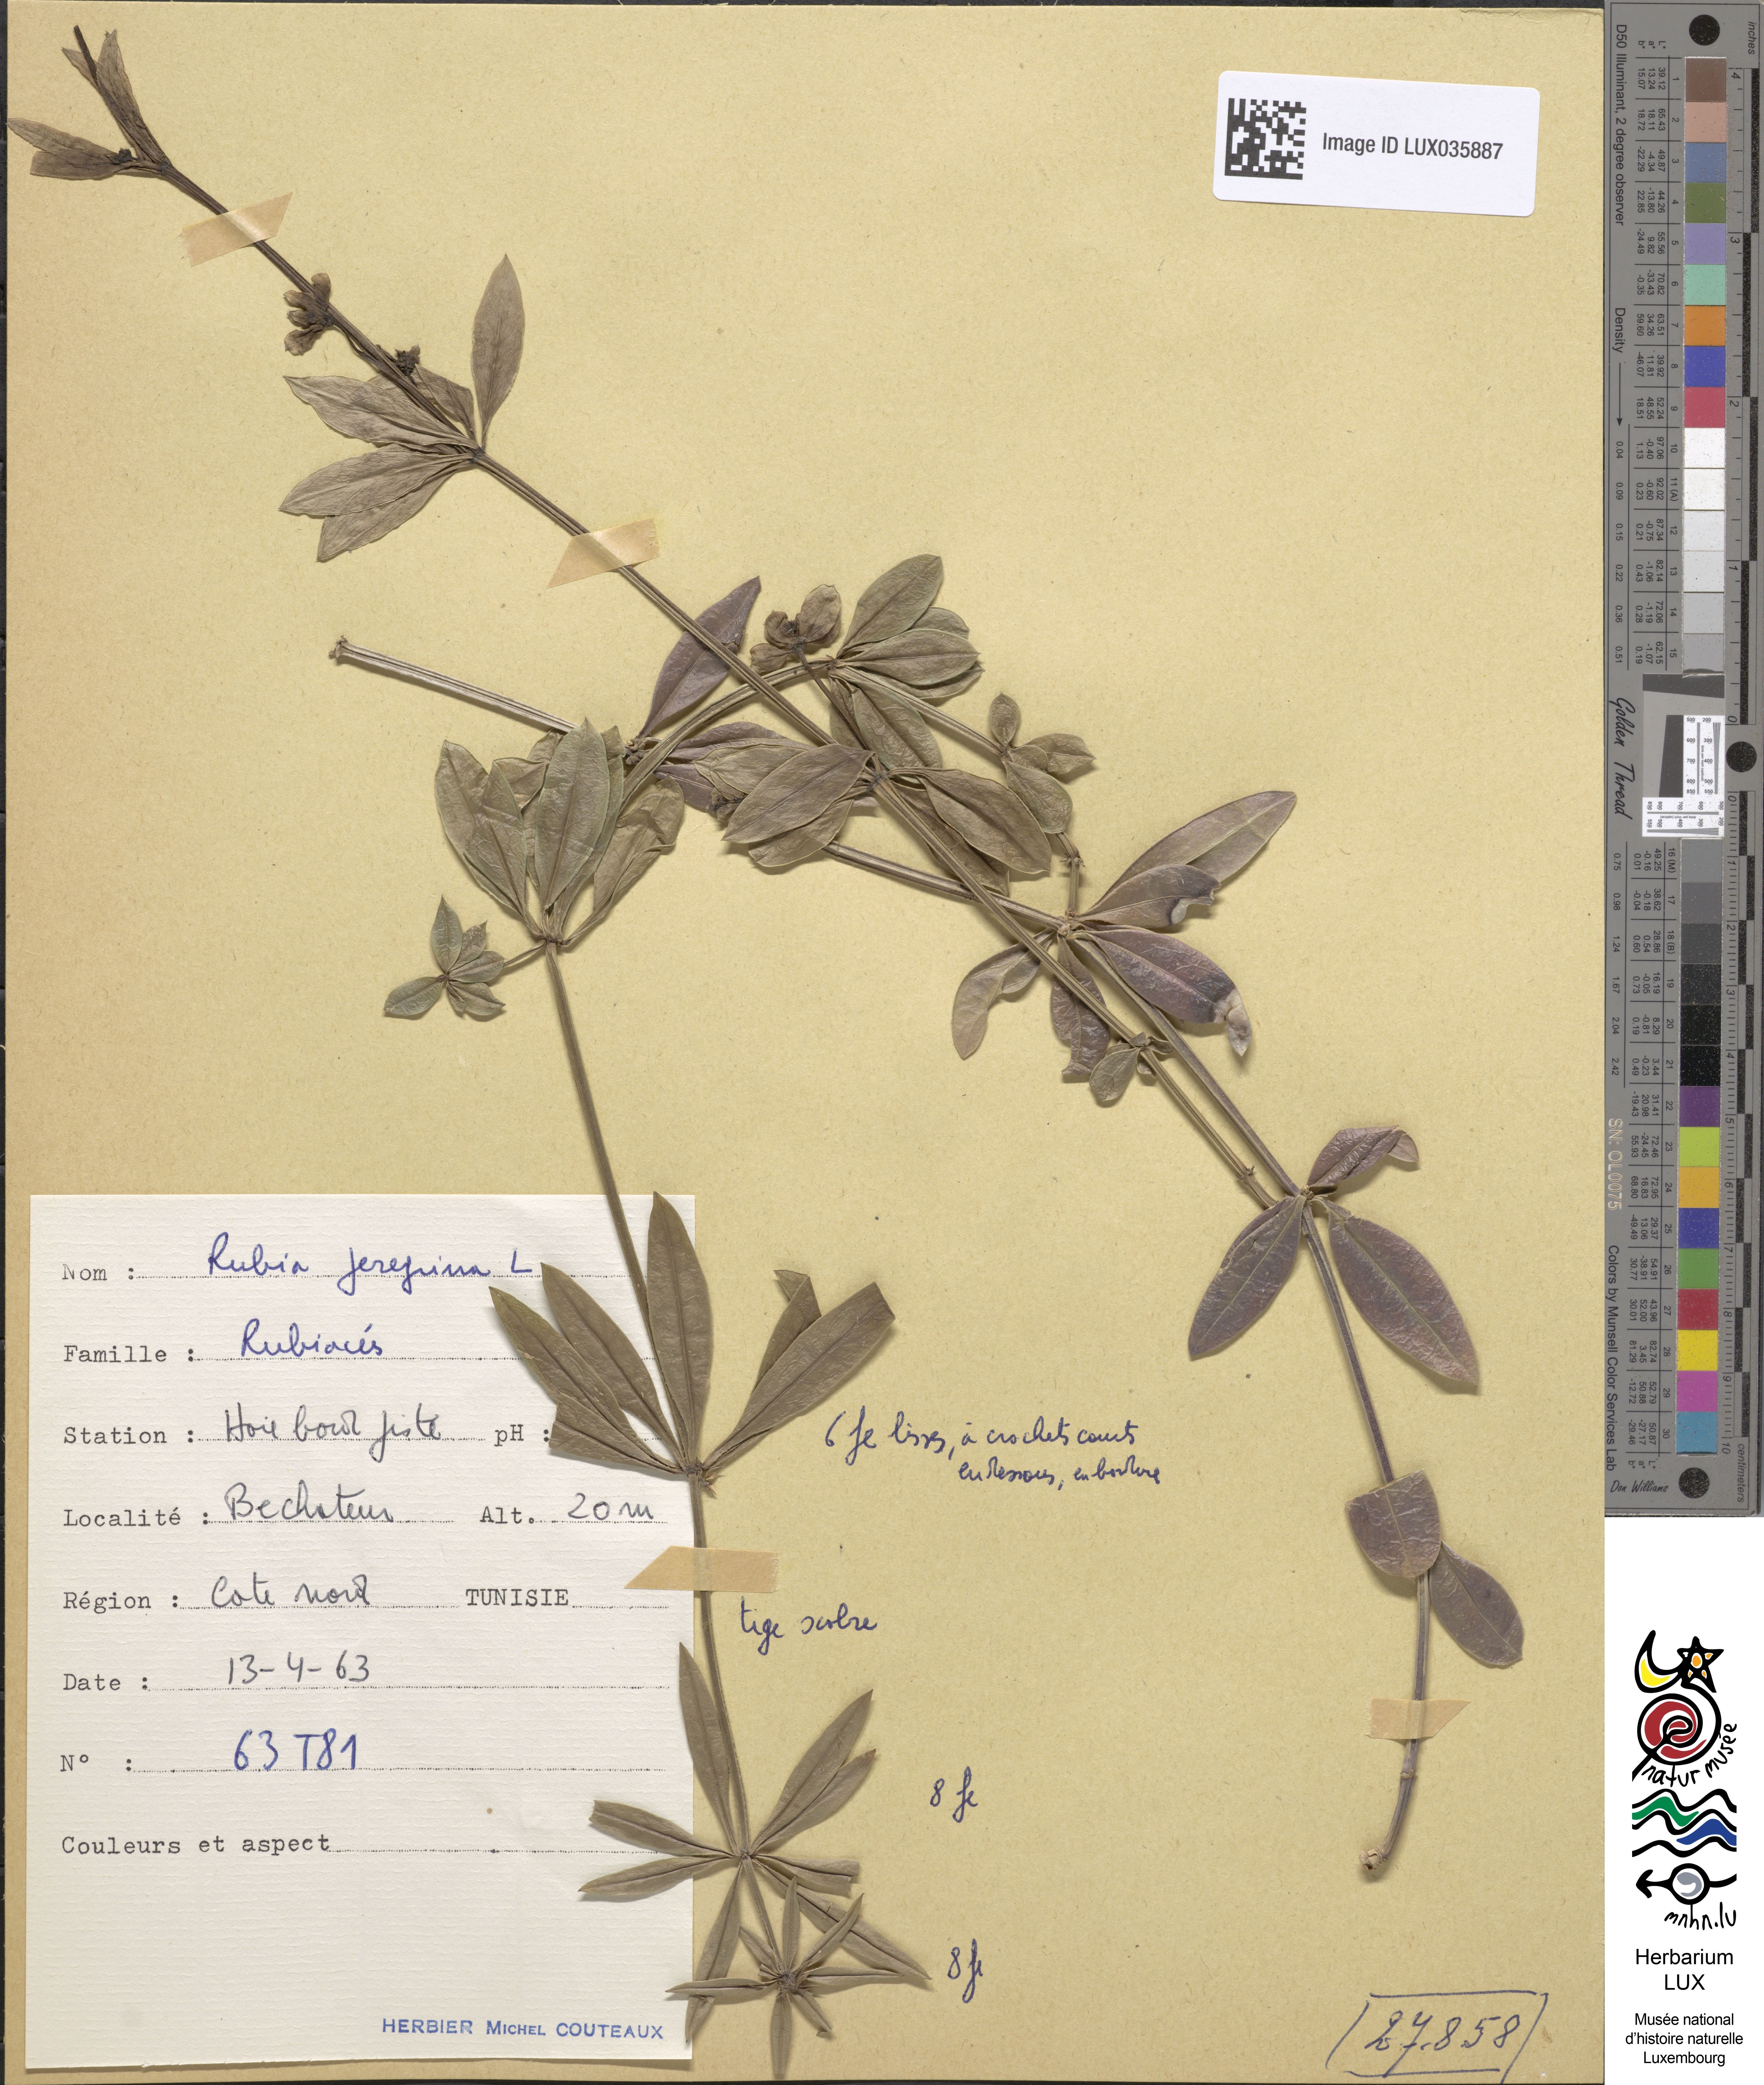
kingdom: Plantae
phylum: Tracheophyta
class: Magnoliopsida
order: Gentianales
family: Rubiaceae
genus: Rubia
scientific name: Rubia peregrina
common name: Wild madder
